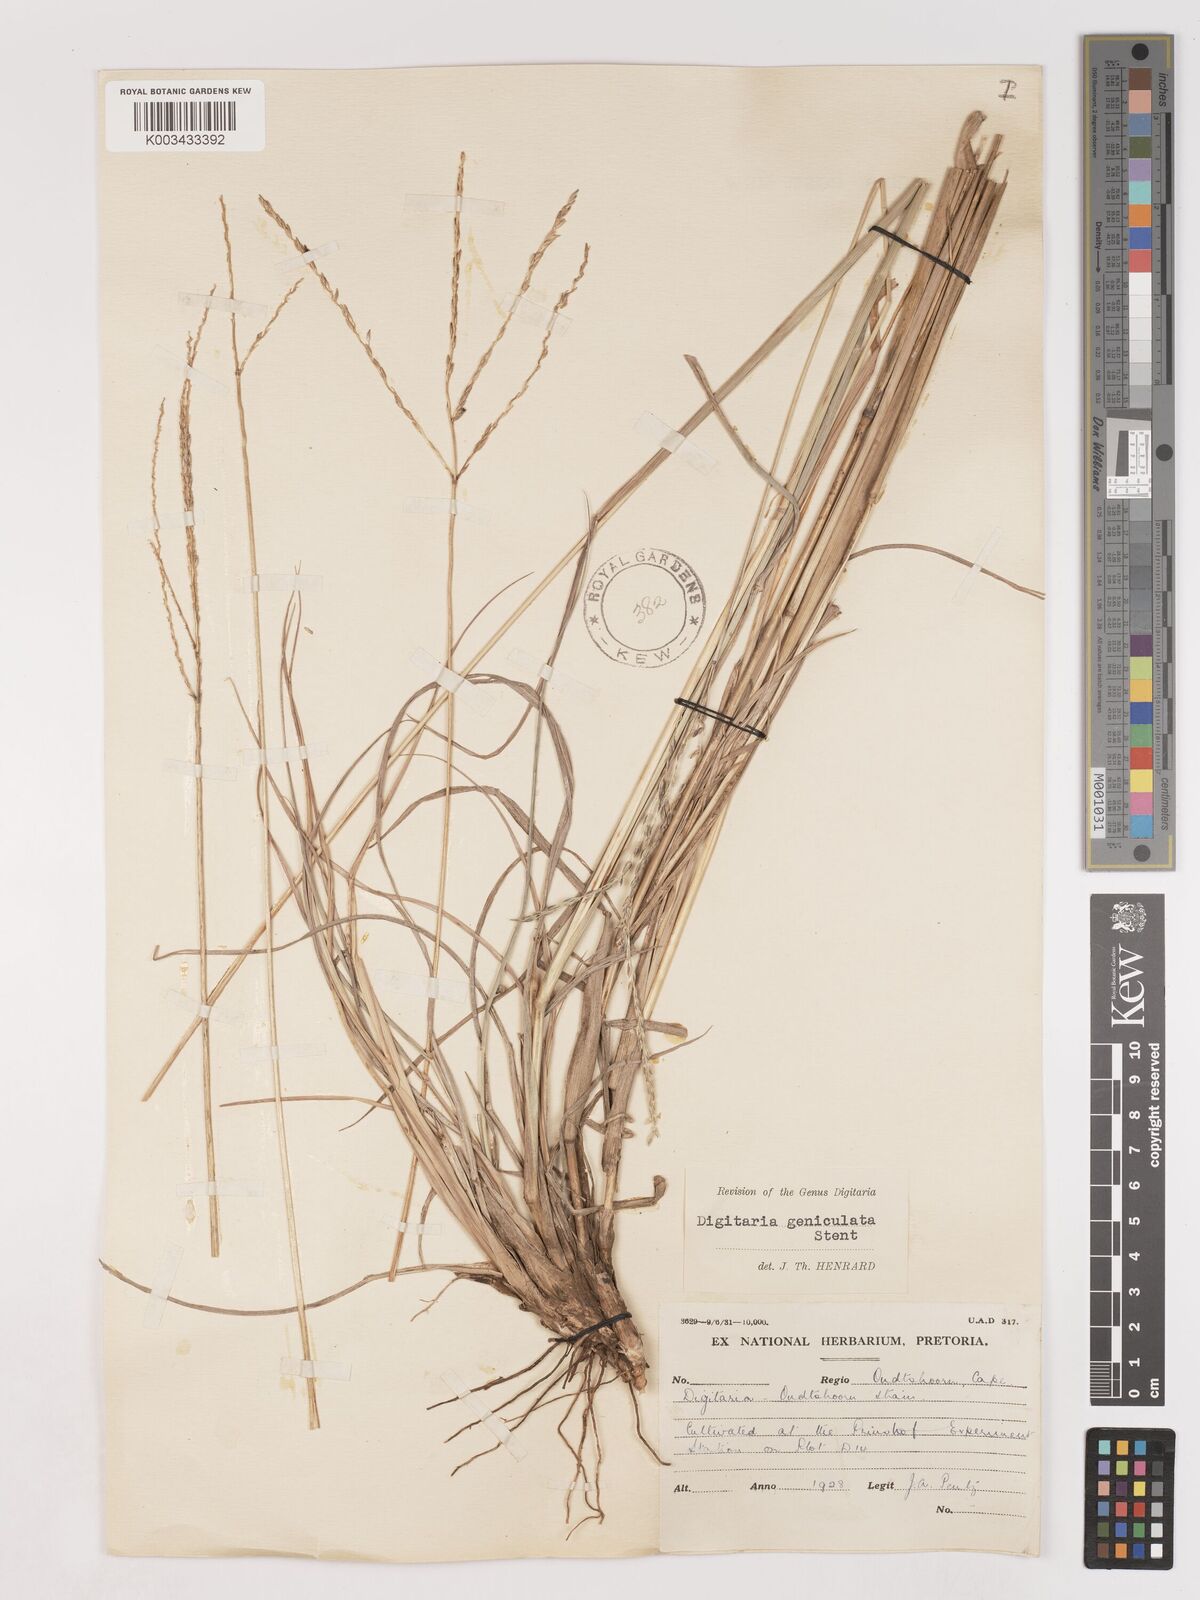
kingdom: Plantae
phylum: Tracheophyta
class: Liliopsida
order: Poales
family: Poaceae
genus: Digitaria
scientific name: Digitaria eriantha
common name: Digitgrass
